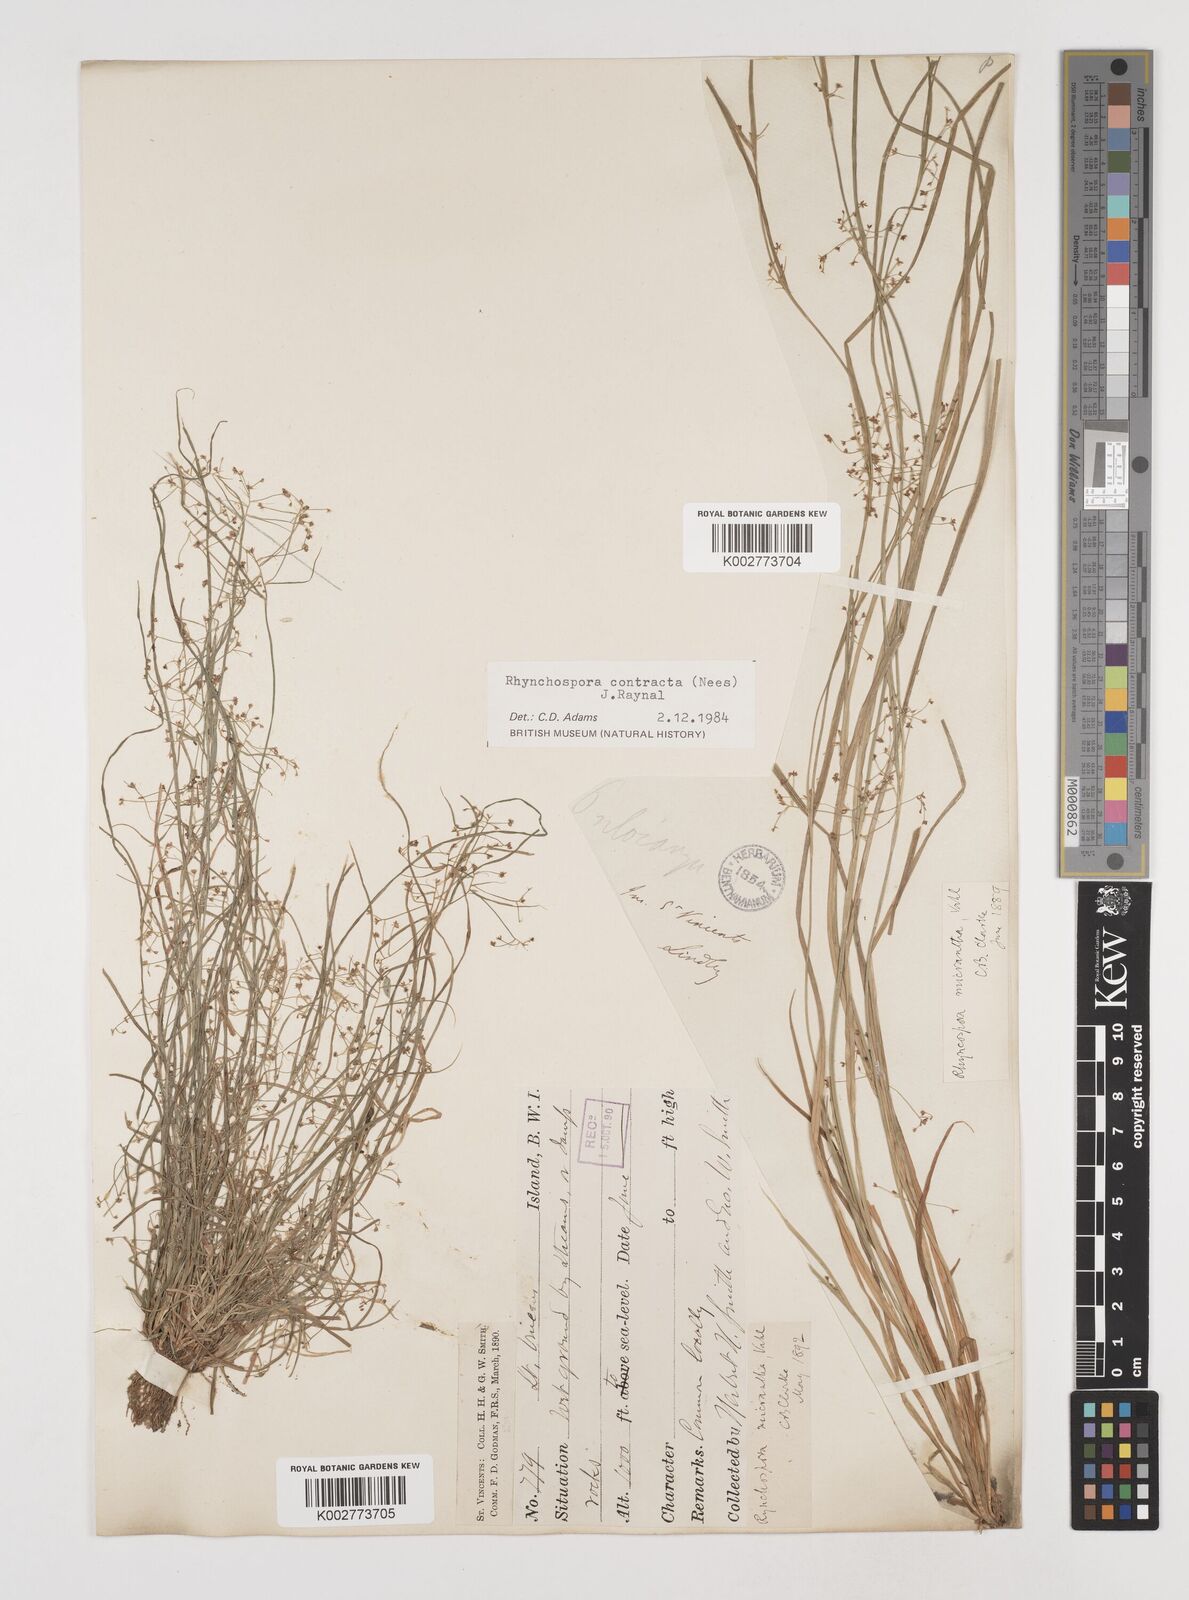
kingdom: Plantae
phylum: Tracheophyta
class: Liliopsida
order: Poales
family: Cyperaceae
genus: Rhynchospora
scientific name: Rhynchospora contracta
